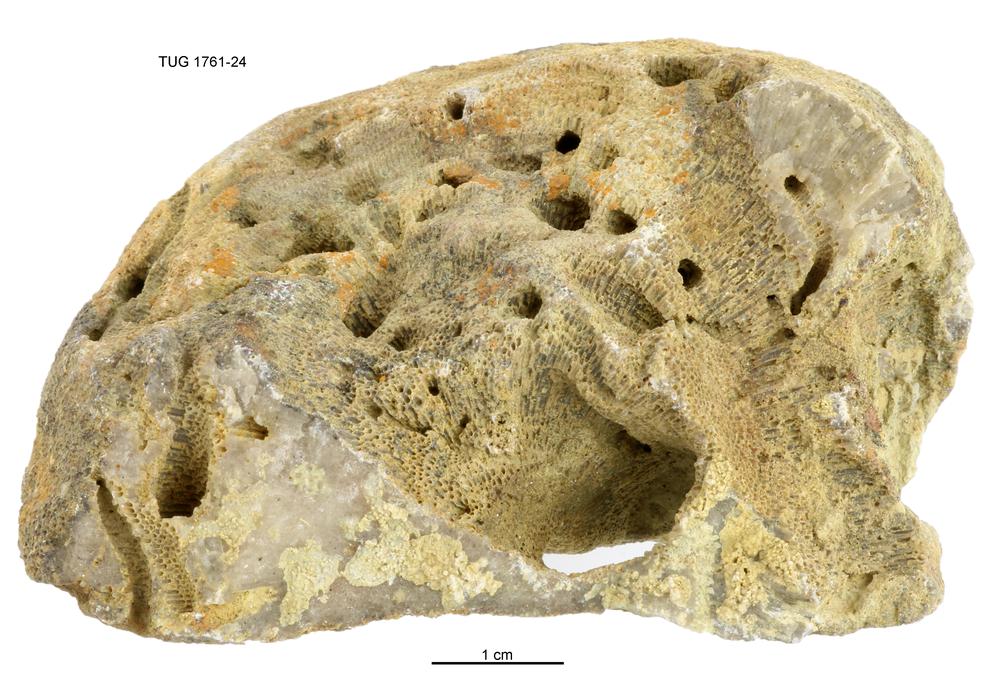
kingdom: Animalia
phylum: Bryozoa
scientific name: Bryozoa
